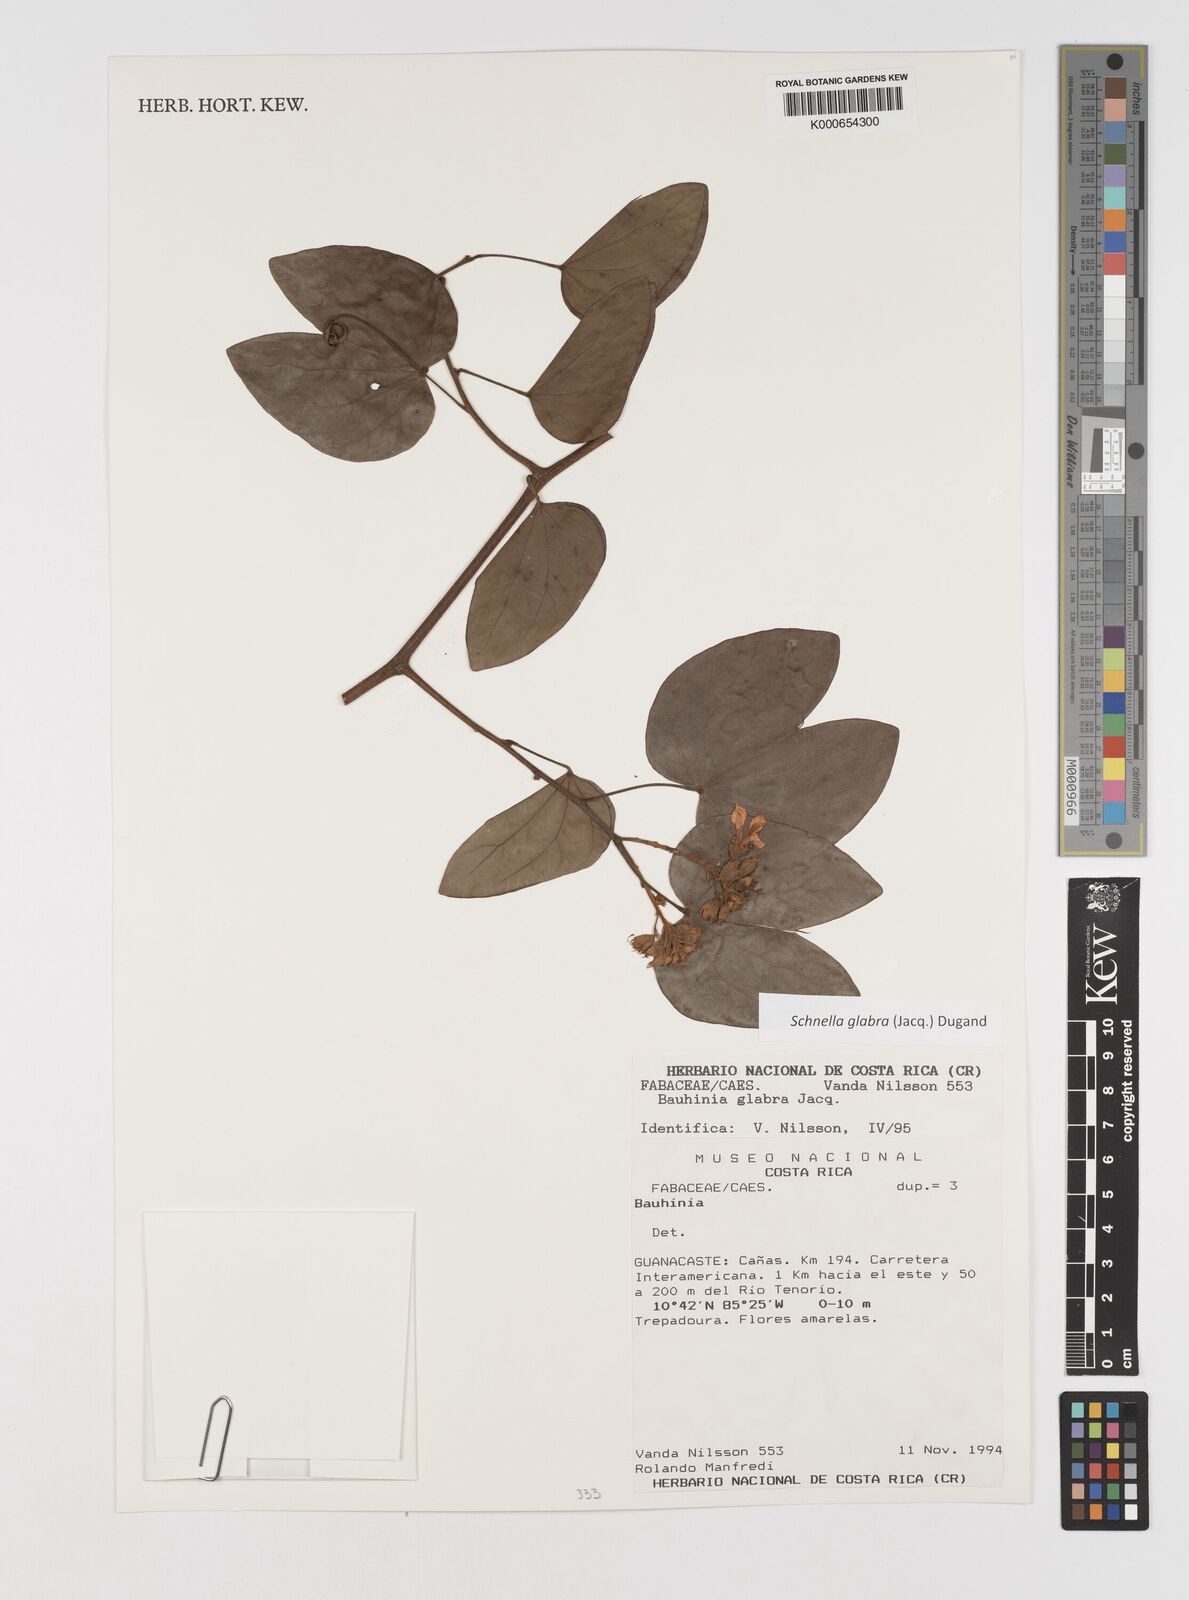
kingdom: Plantae
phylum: Tracheophyta
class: Magnoliopsida
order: Fabales
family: Fabaceae
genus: Schnella
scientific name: Schnella glabra
